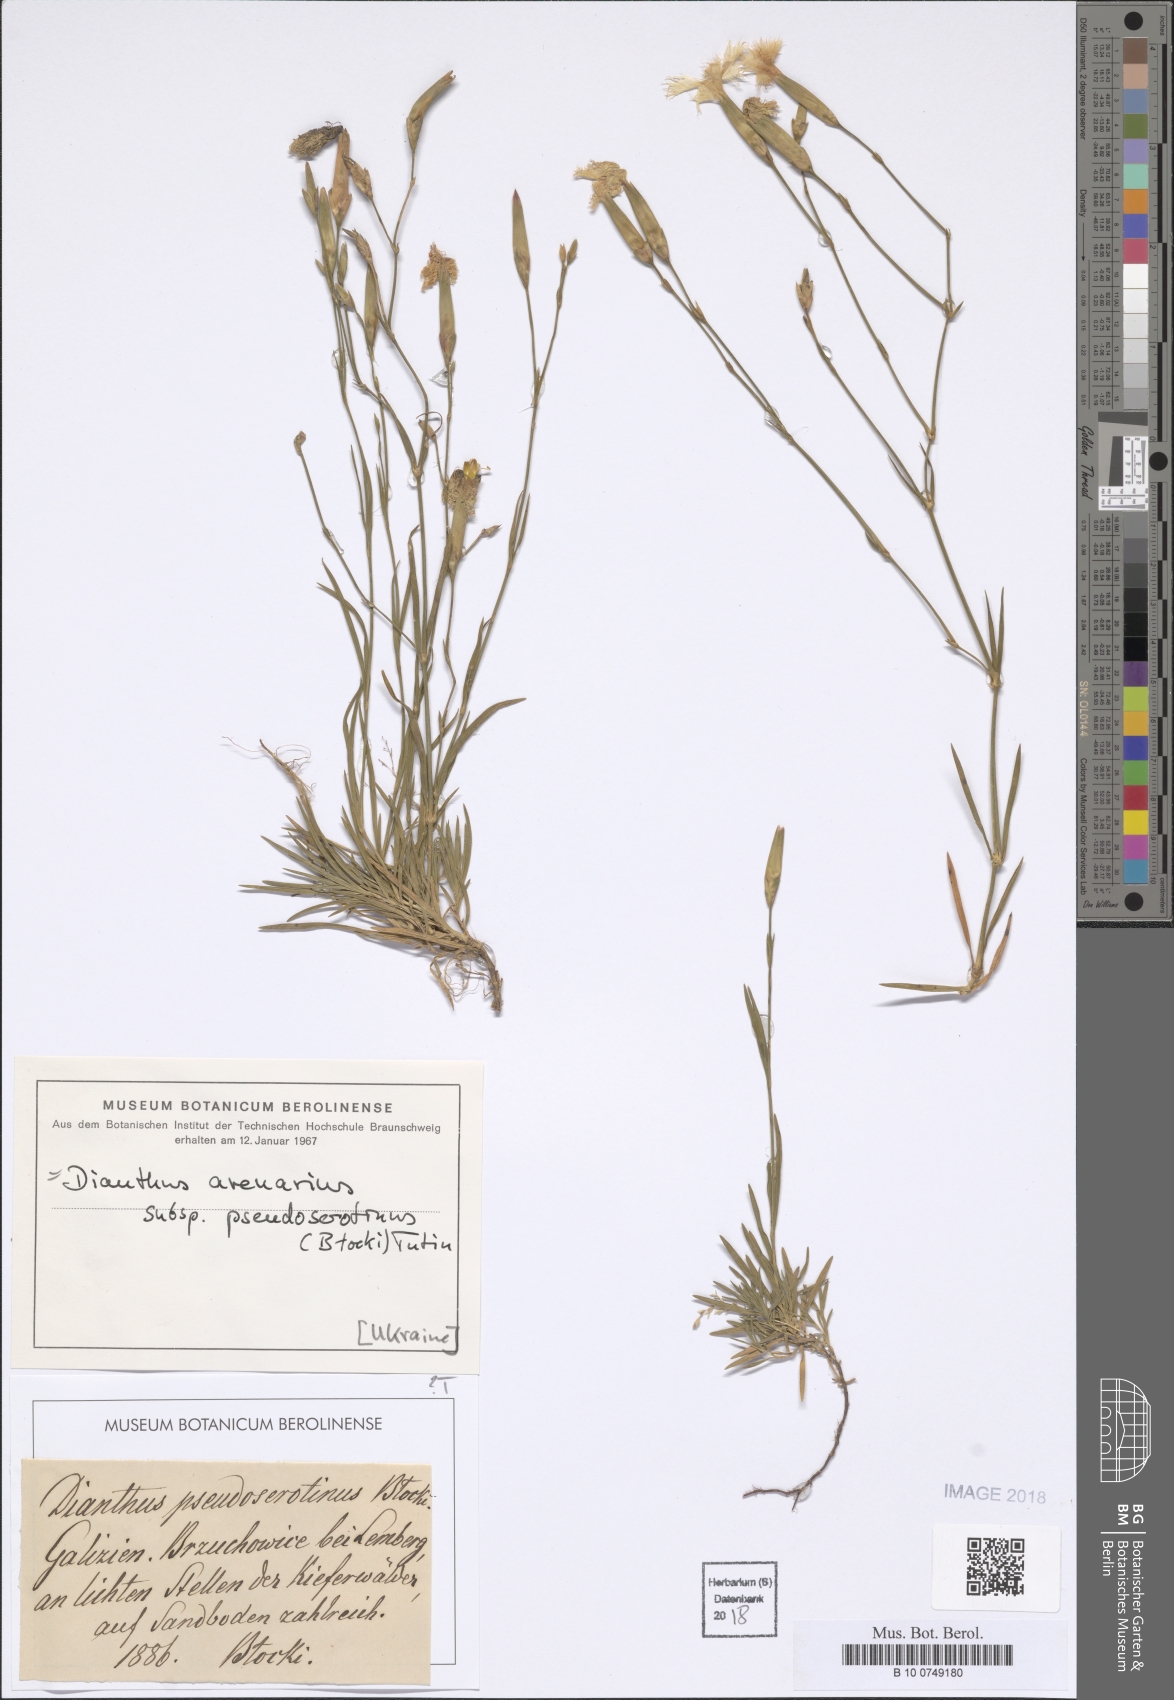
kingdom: Plantae
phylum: Tracheophyta
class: Magnoliopsida
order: Caryophyllales
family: Caryophyllaceae
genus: Dianthus
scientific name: Dianthus arenarius
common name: Stone pink
